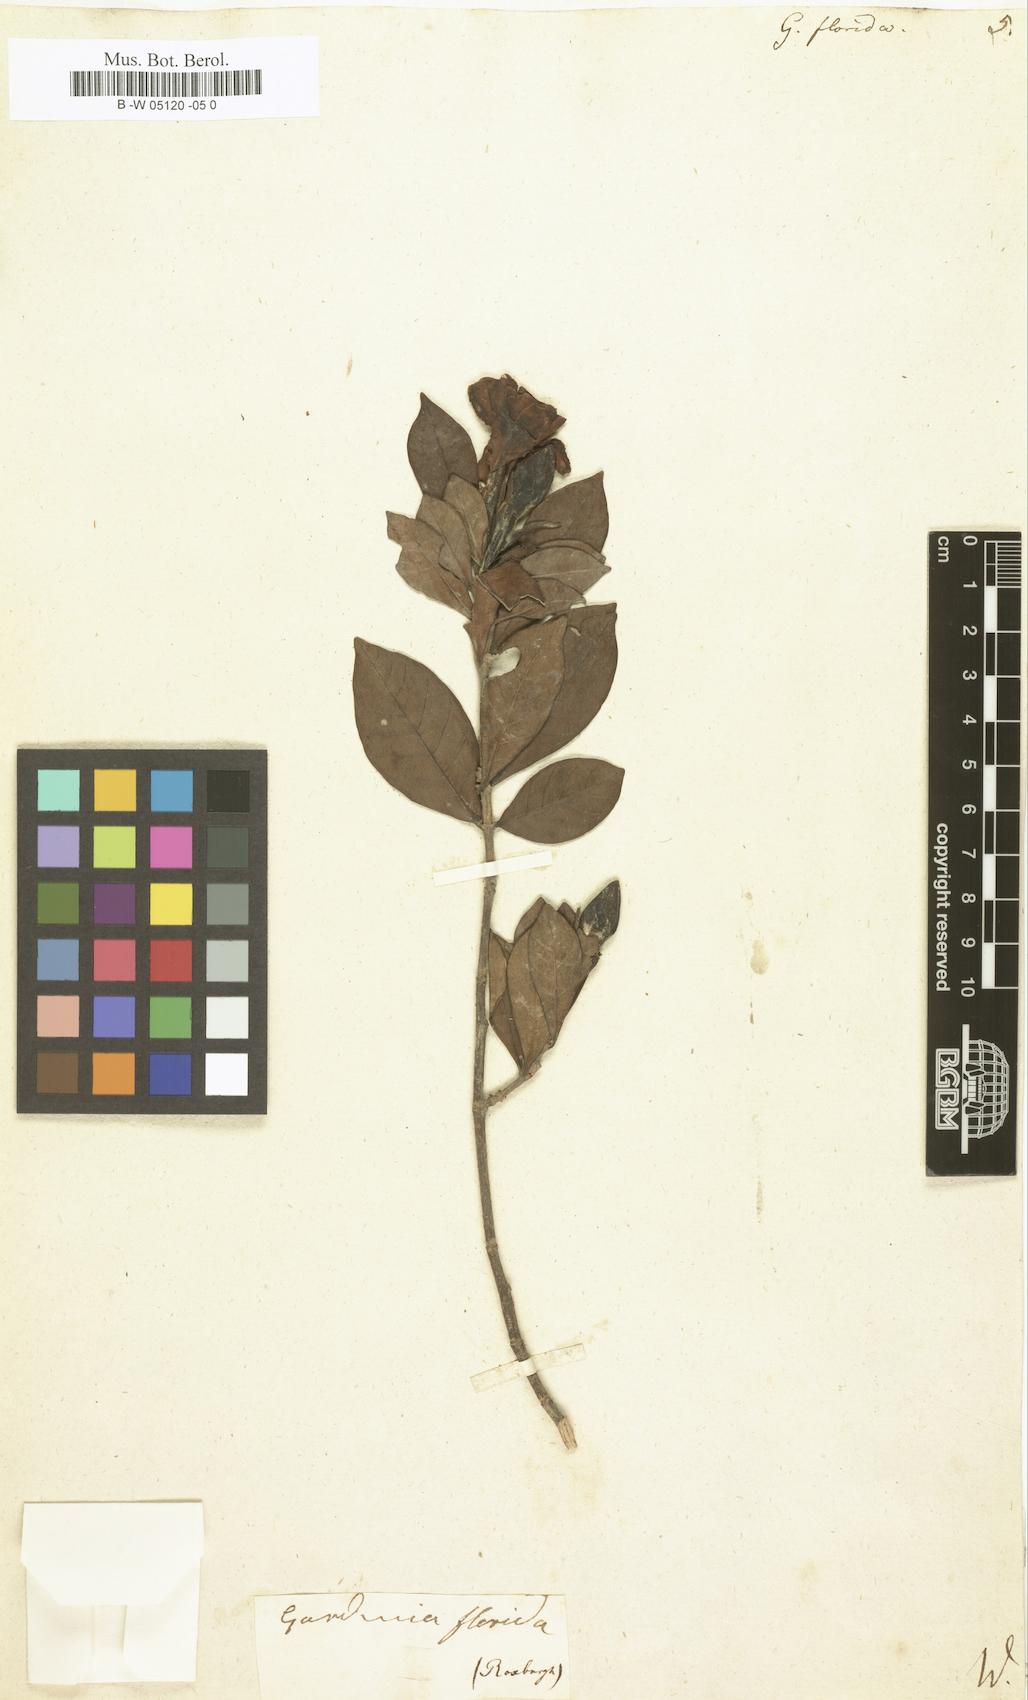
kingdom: Plantae
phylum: Tracheophyta
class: Magnoliopsida
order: Gentianales
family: Rubiaceae
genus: Gardenia
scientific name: Gardenia jasminoides
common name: Cape-jasmine
